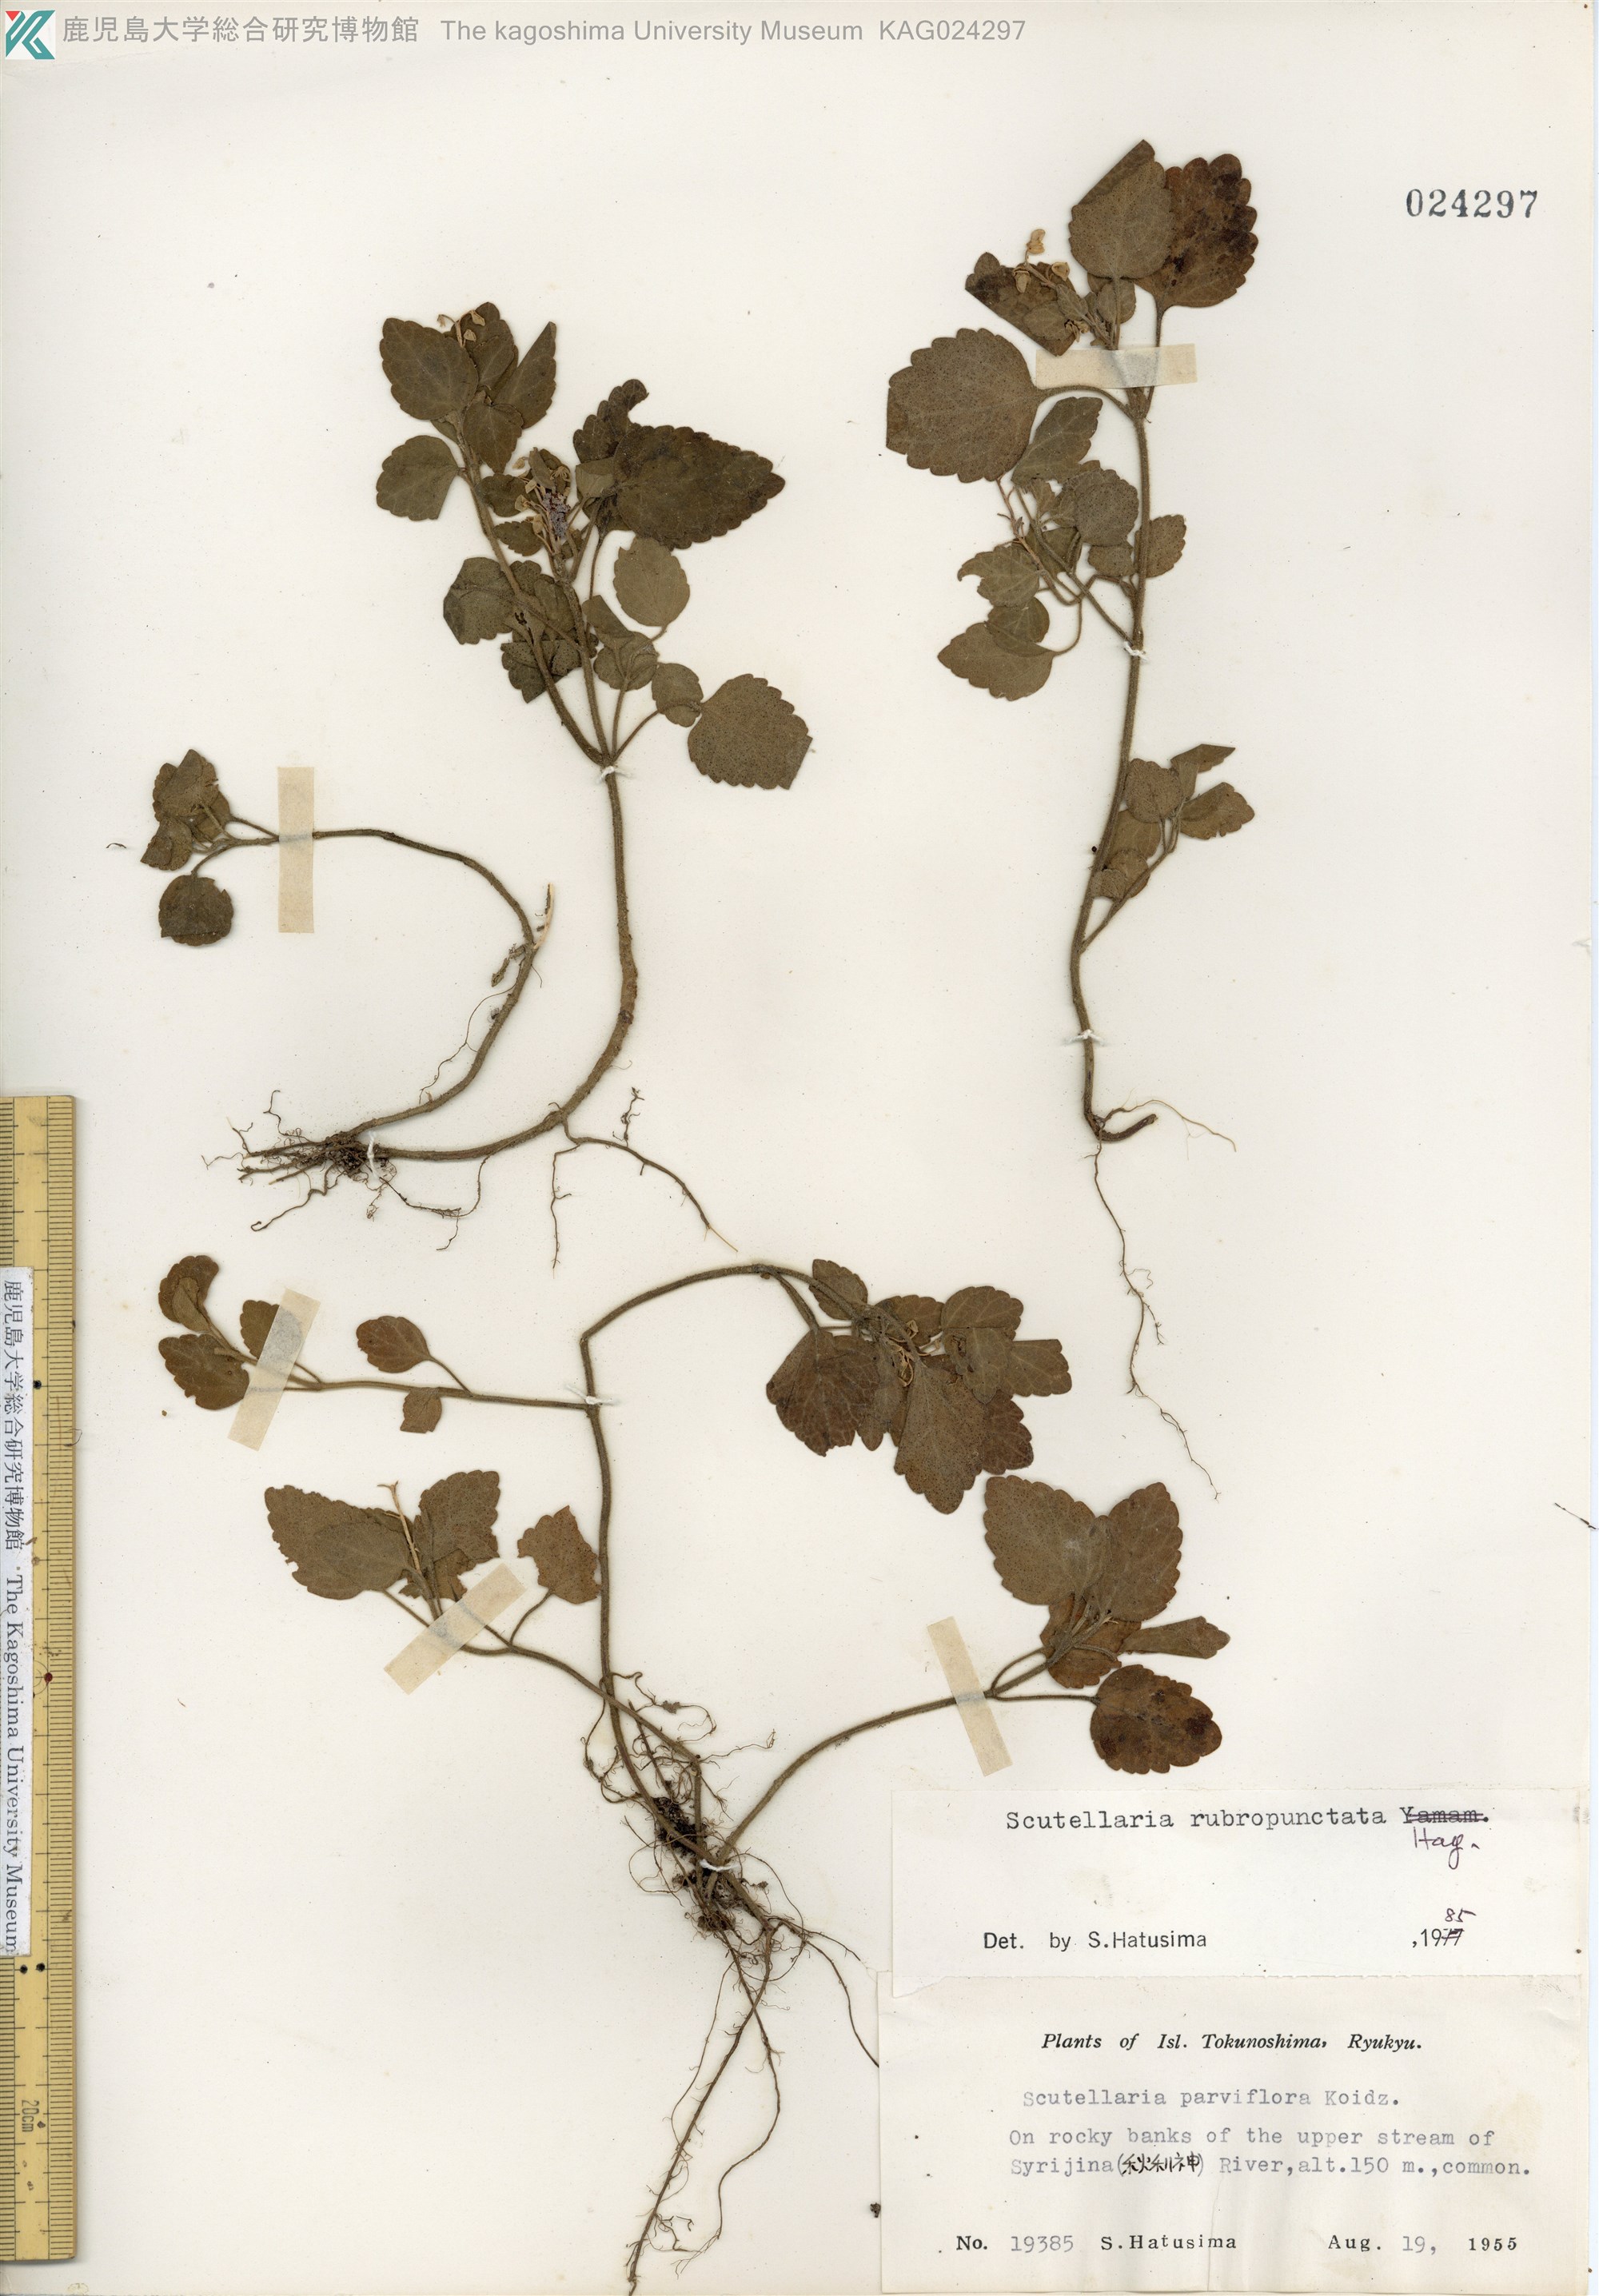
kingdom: Plantae
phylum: Tracheophyta
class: Magnoliopsida
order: Lamiales
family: Lamiaceae
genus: Scutellaria
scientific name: Scutellaria rubropunctata
